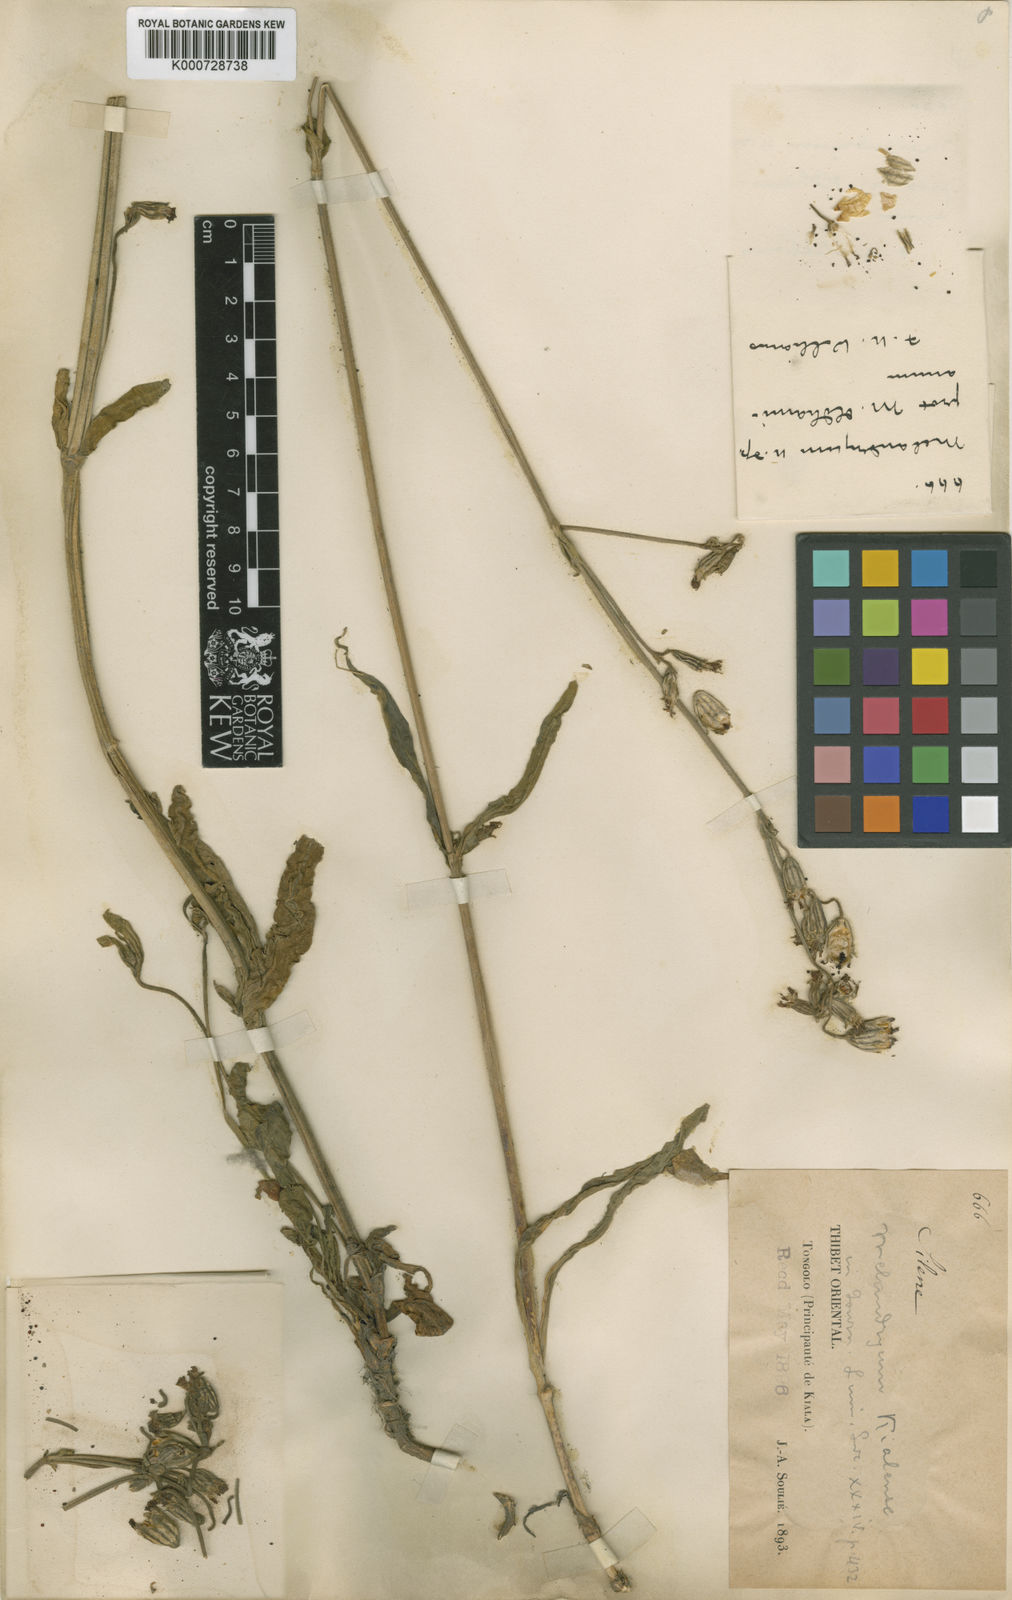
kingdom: Plantae
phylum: Tracheophyta
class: Magnoliopsida
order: Caryophyllales
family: Caryophyllaceae
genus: Silene
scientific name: Silene
